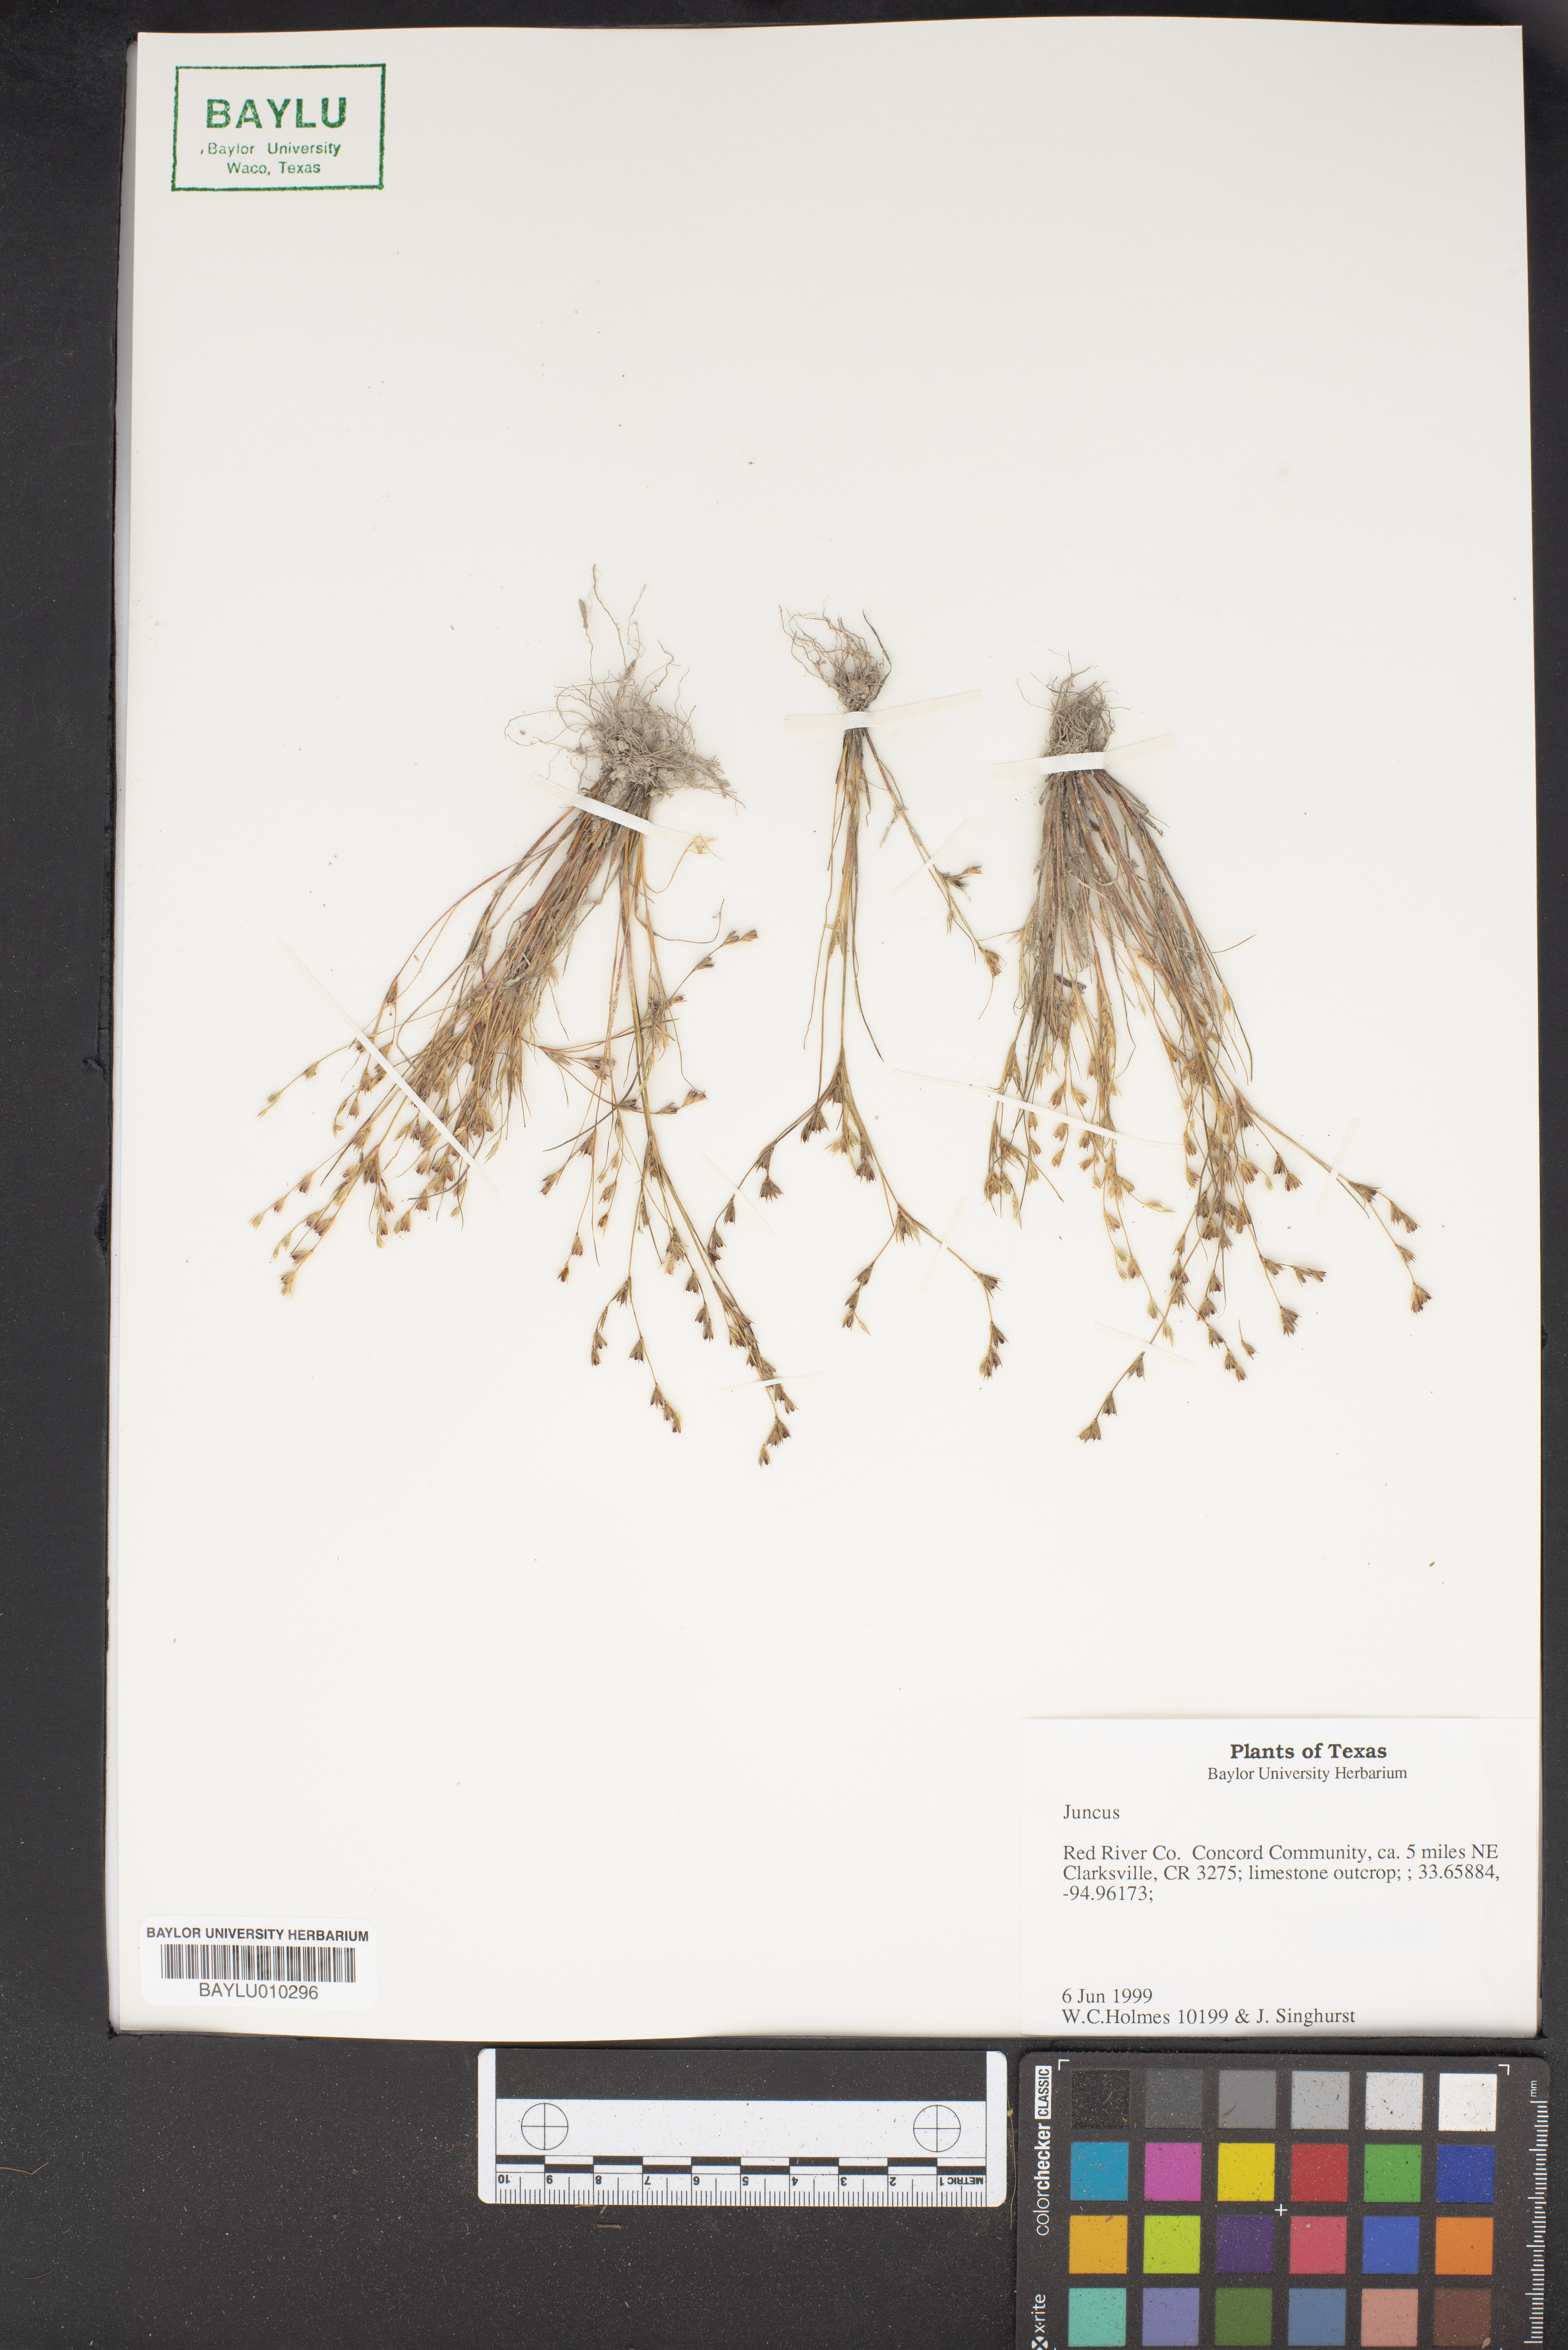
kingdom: Plantae
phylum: Tracheophyta
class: Liliopsida
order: Poales
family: Juncaceae
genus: Juncus
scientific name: Juncus
